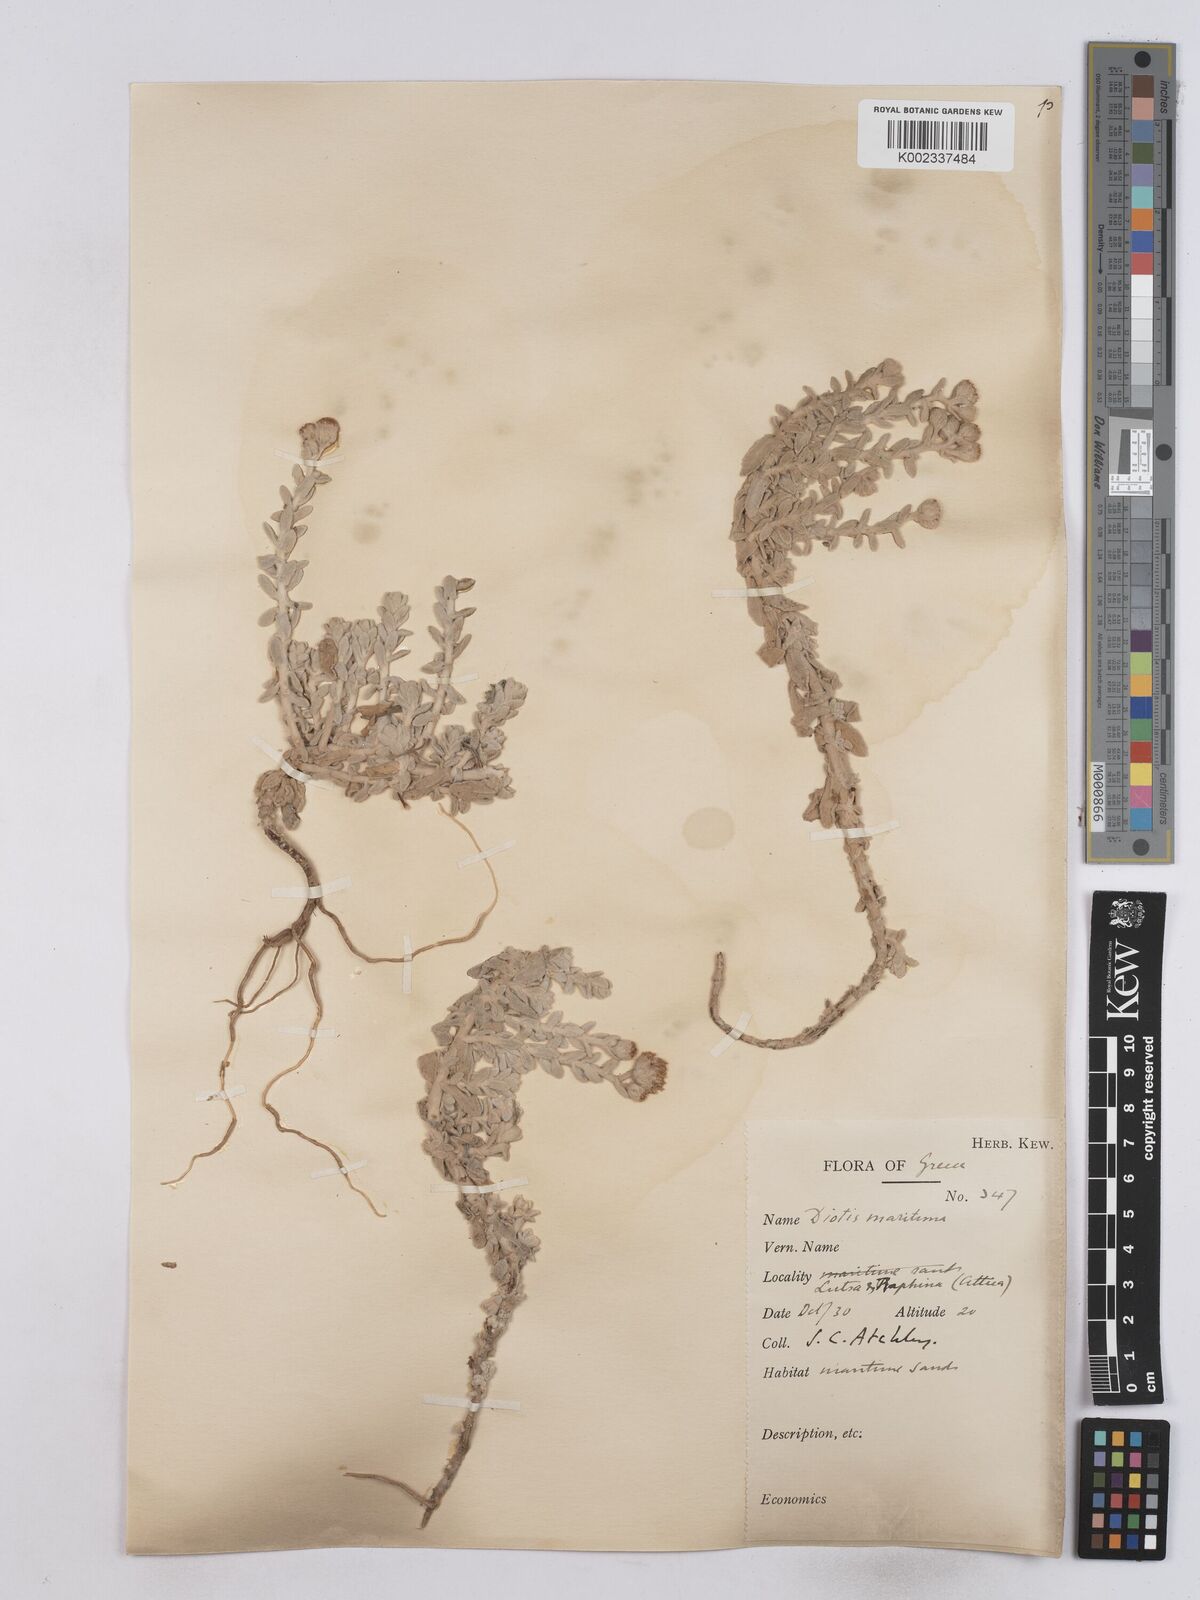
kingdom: Plantae
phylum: Tracheophyta
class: Magnoliopsida
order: Asterales
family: Asteraceae
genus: Achillea
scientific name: Achillea maritima
